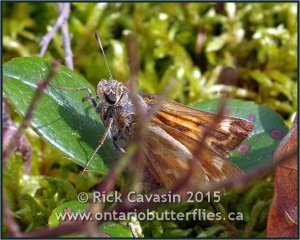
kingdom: Animalia
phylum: Arthropoda
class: Insecta
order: Lepidoptera
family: Hesperiidae
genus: Hesperia
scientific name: Hesperia sassacus
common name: Sassacus Skipper
